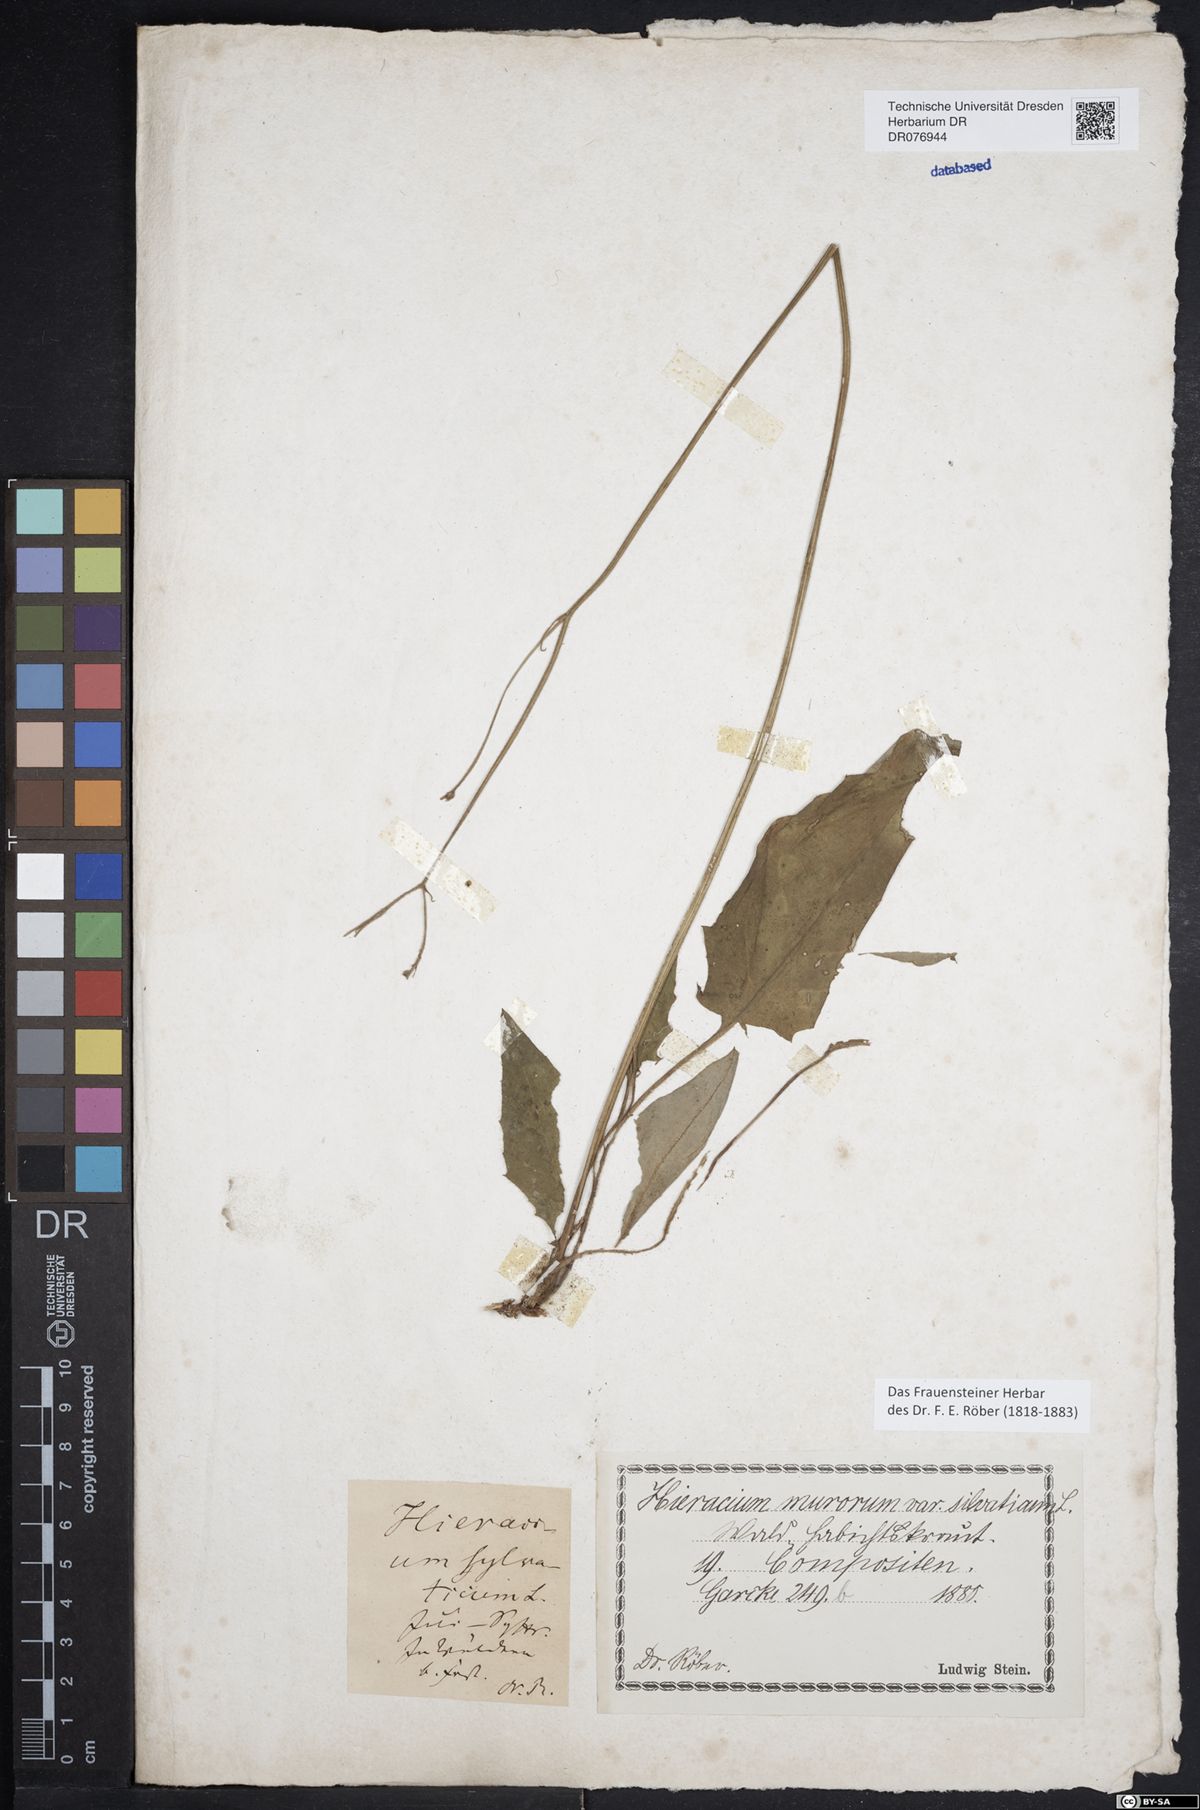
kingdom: Plantae
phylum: Tracheophyta
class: Magnoliopsida
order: Asterales
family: Asteraceae
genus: Hieracium
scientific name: Hieracium murorum
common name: Wall hawkweed
